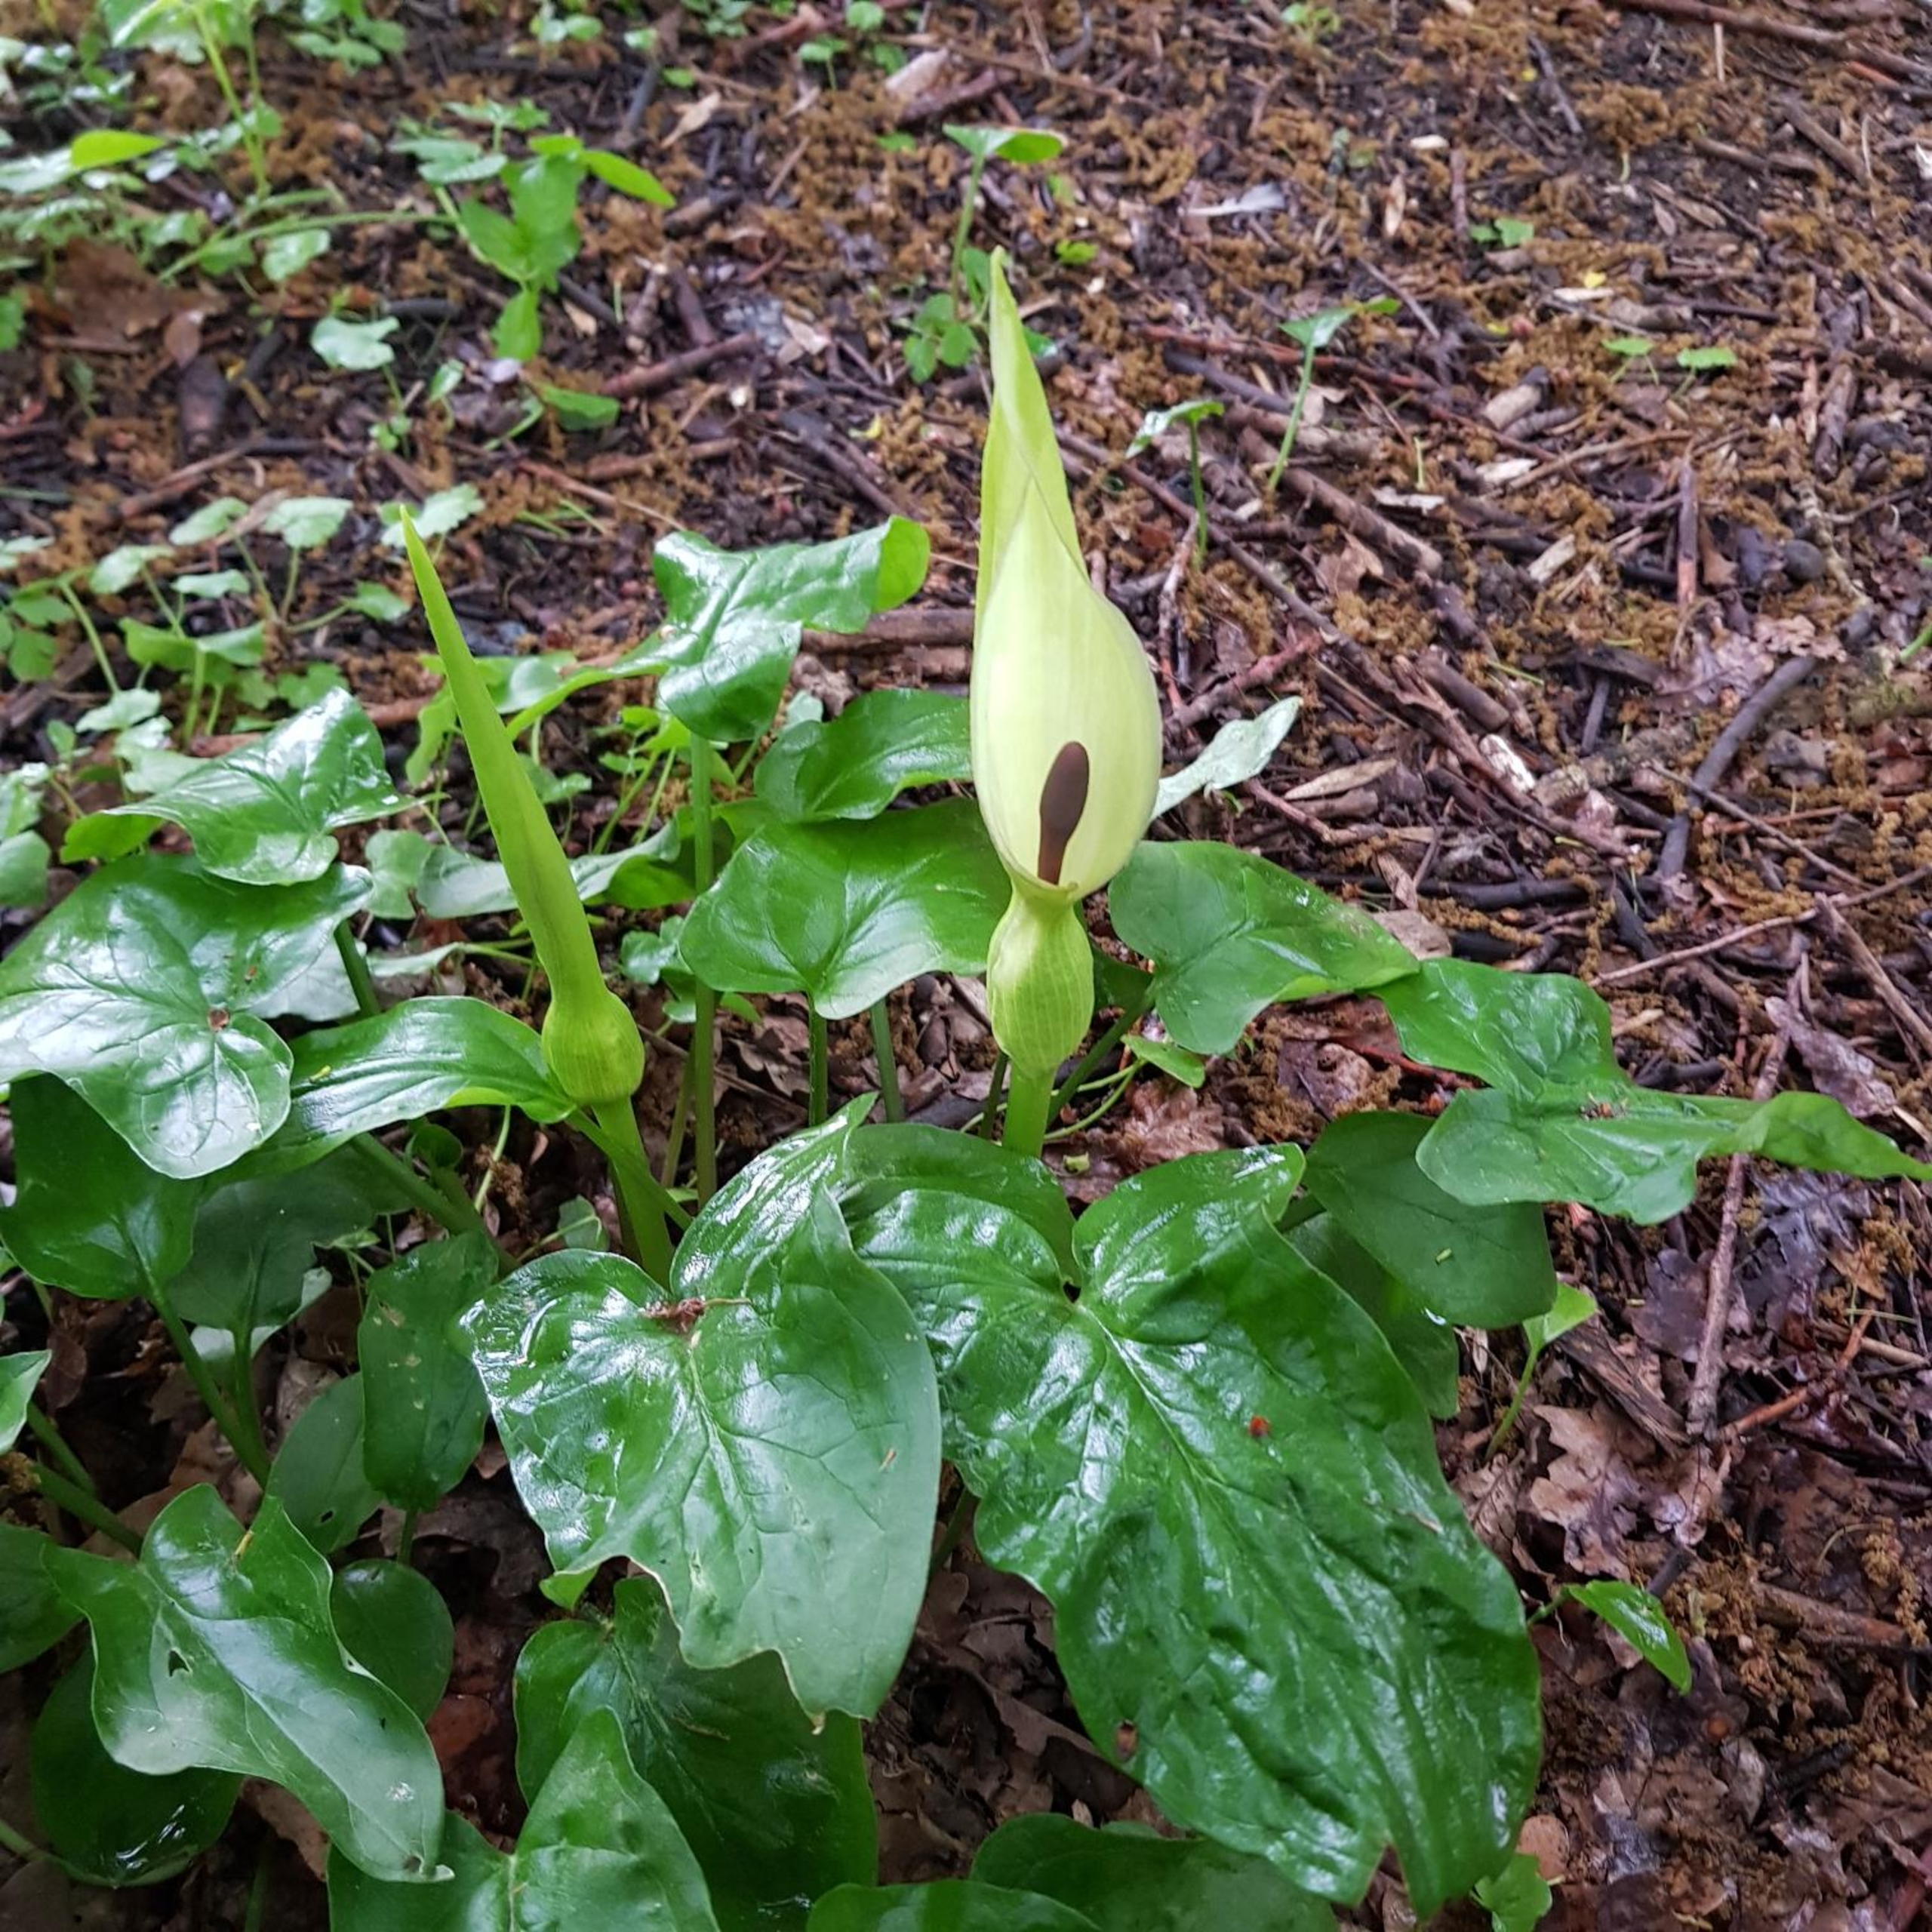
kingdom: Plantae
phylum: Tracheophyta
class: Liliopsida
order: Alismatales
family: Araceae
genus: Arum
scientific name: Arum cylindraceum
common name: Dansk arum
